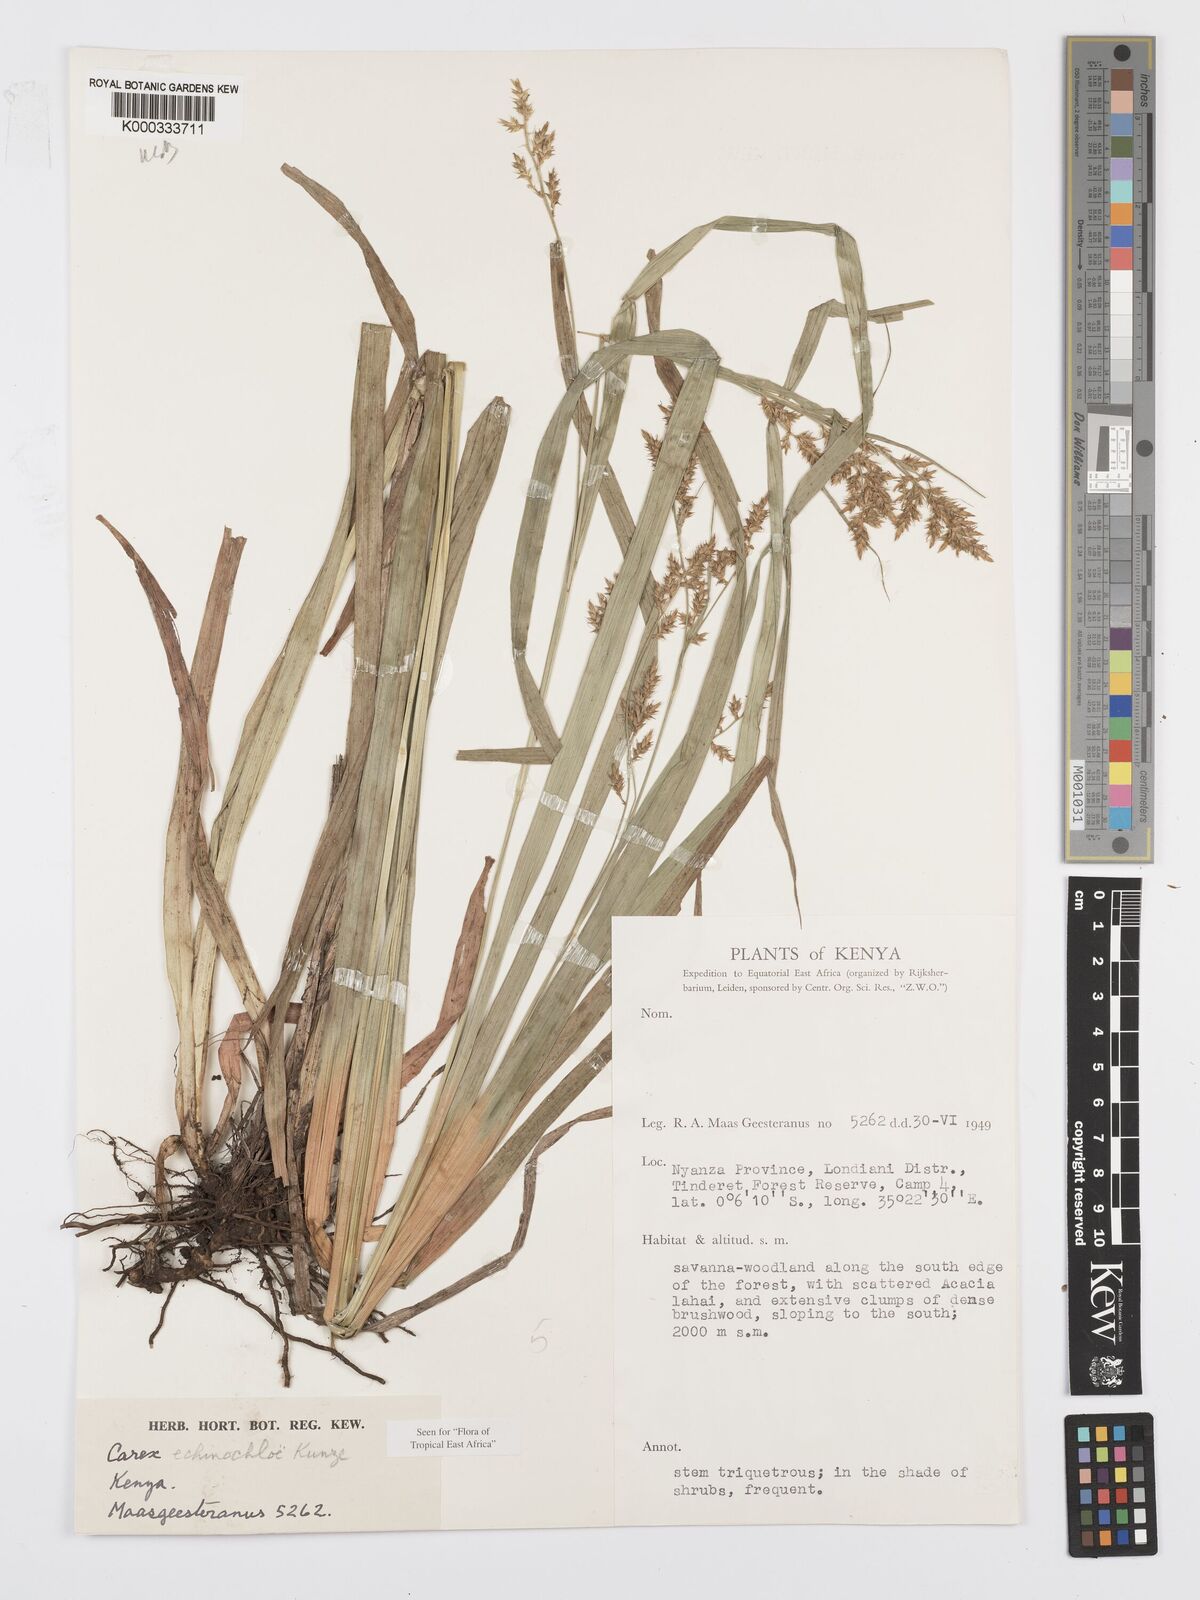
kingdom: Plantae
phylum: Tracheophyta
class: Liliopsida
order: Poales
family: Cyperaceae
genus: Carex
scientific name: Carex echinochloe
